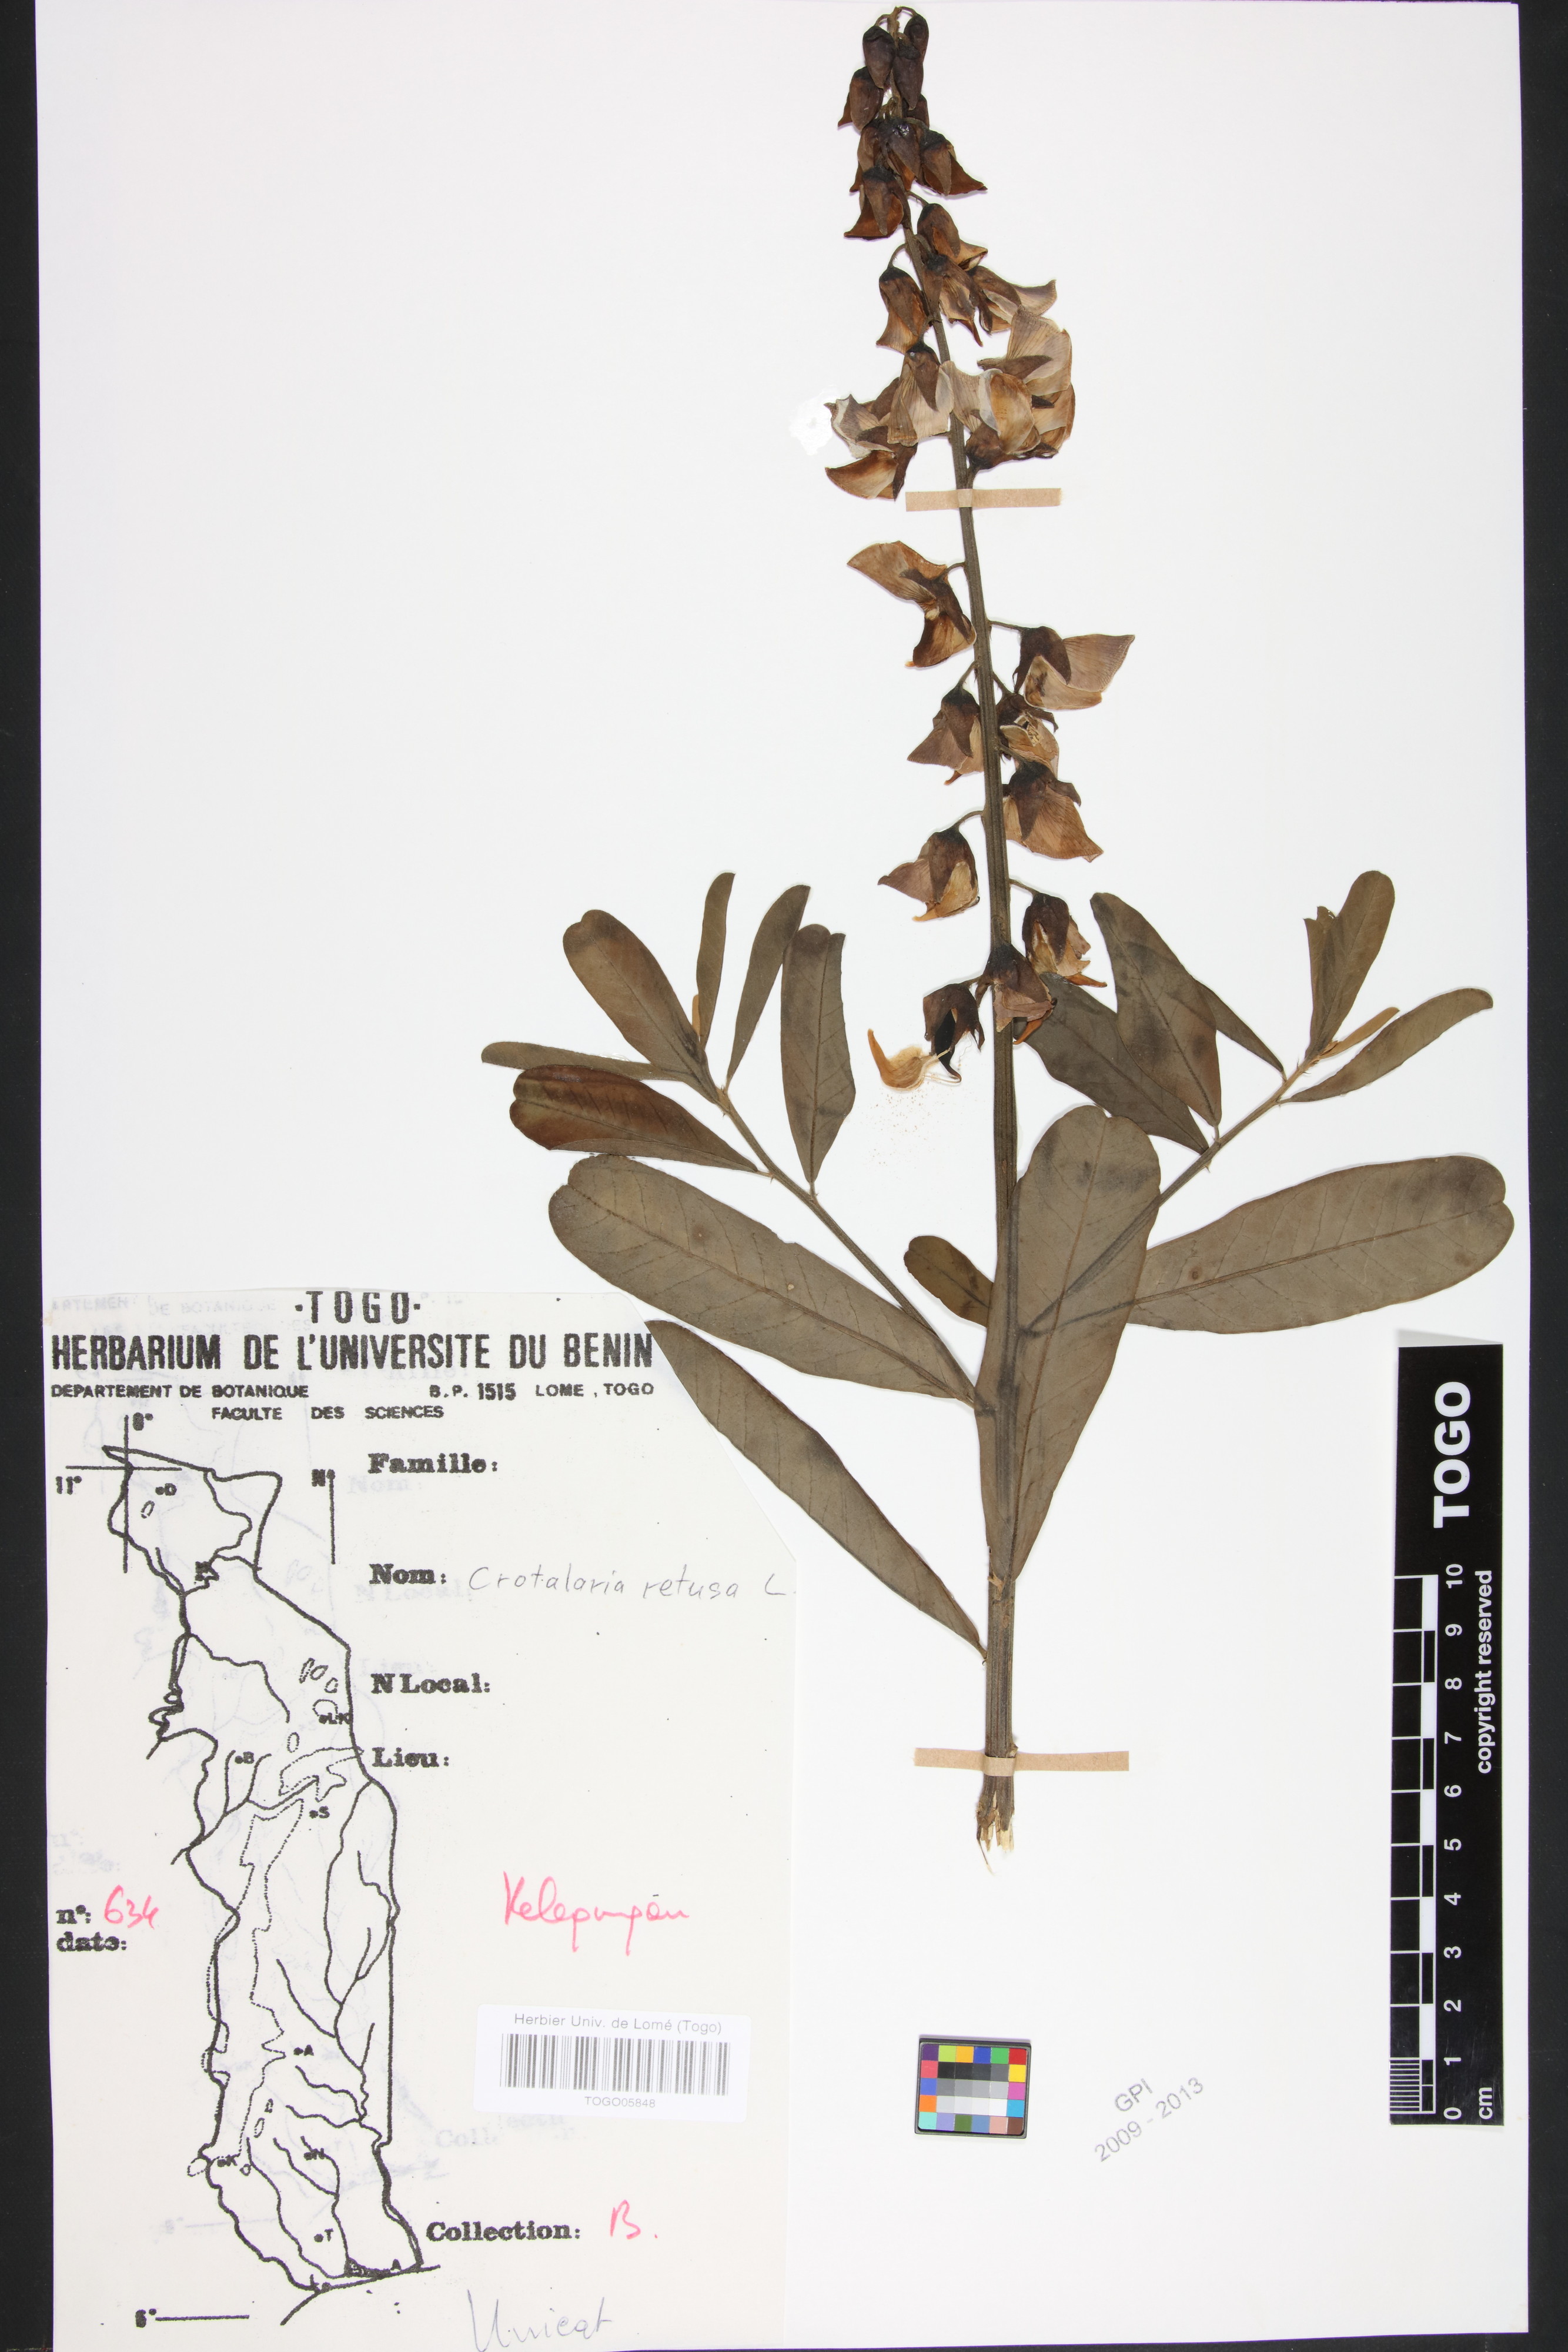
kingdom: Plantae
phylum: Tracheophyta
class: Magnoliopsida
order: Fabales
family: Fabaceae
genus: Crotalaria
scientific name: Crotalaria retusa
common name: Rattleweed
